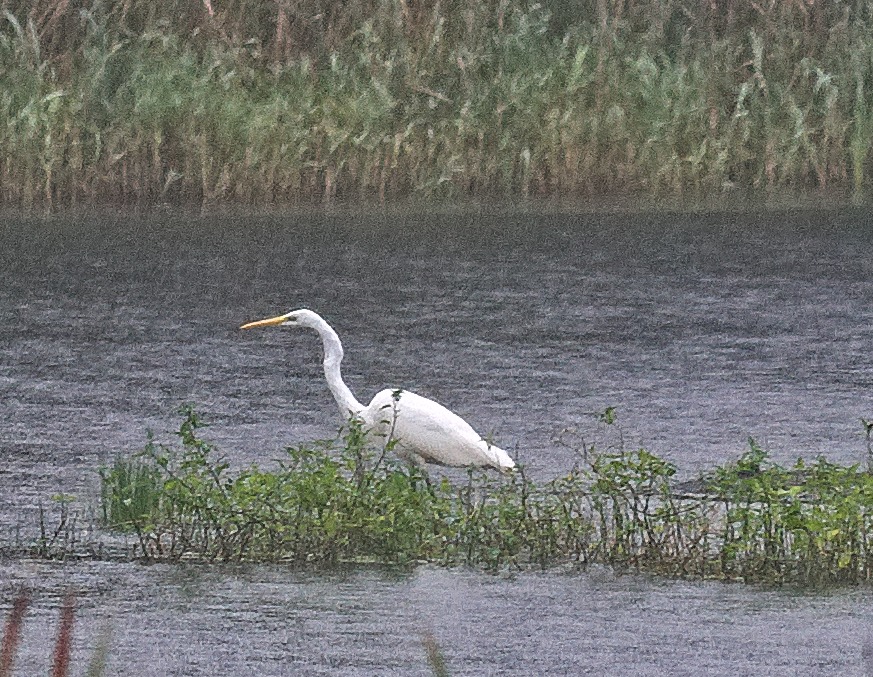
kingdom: Animalia
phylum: Chordata
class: Aves
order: Pelecaniformes
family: Ardeidae
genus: Ardea
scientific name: Ardea alba
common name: Sølvhejre
